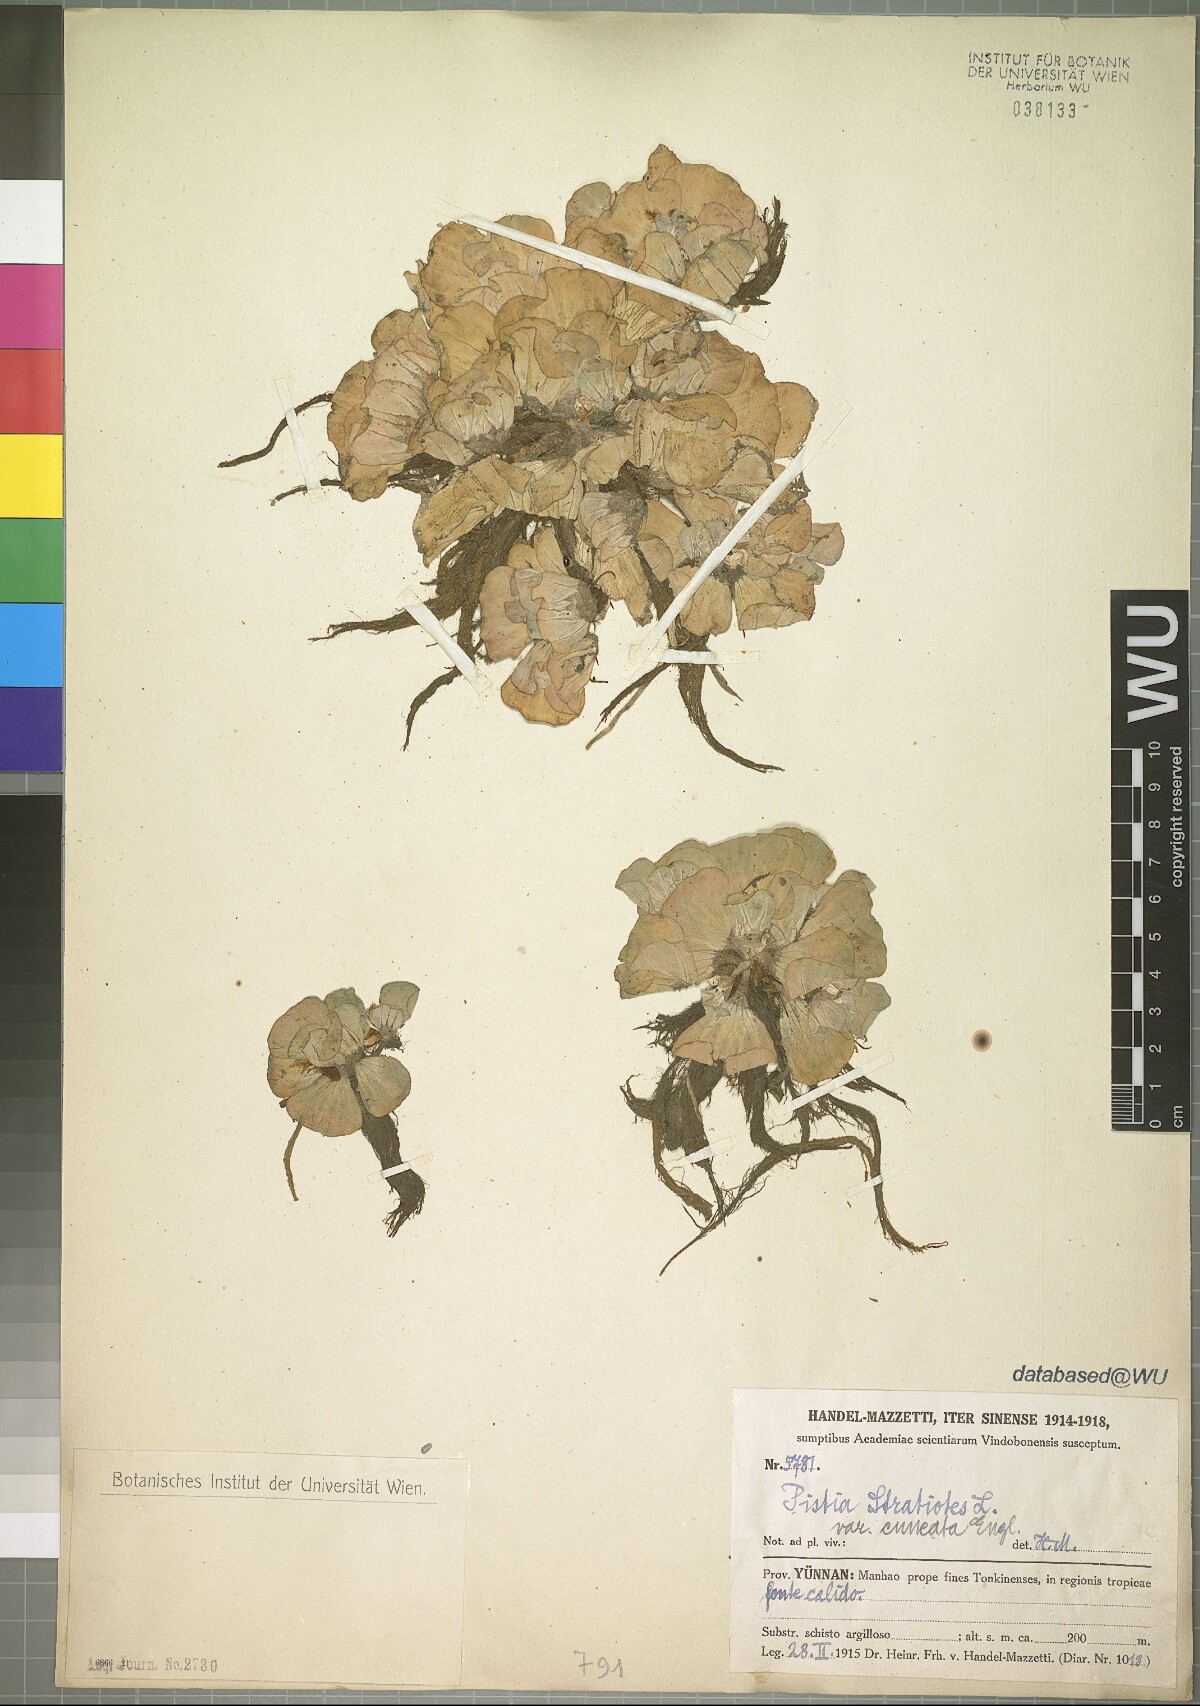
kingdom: Plantae
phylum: Tracheophyta
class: Liliopsida
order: Alismatales
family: Araceae
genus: Pistia
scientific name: Pistia stratiotes
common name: Water lettuce
